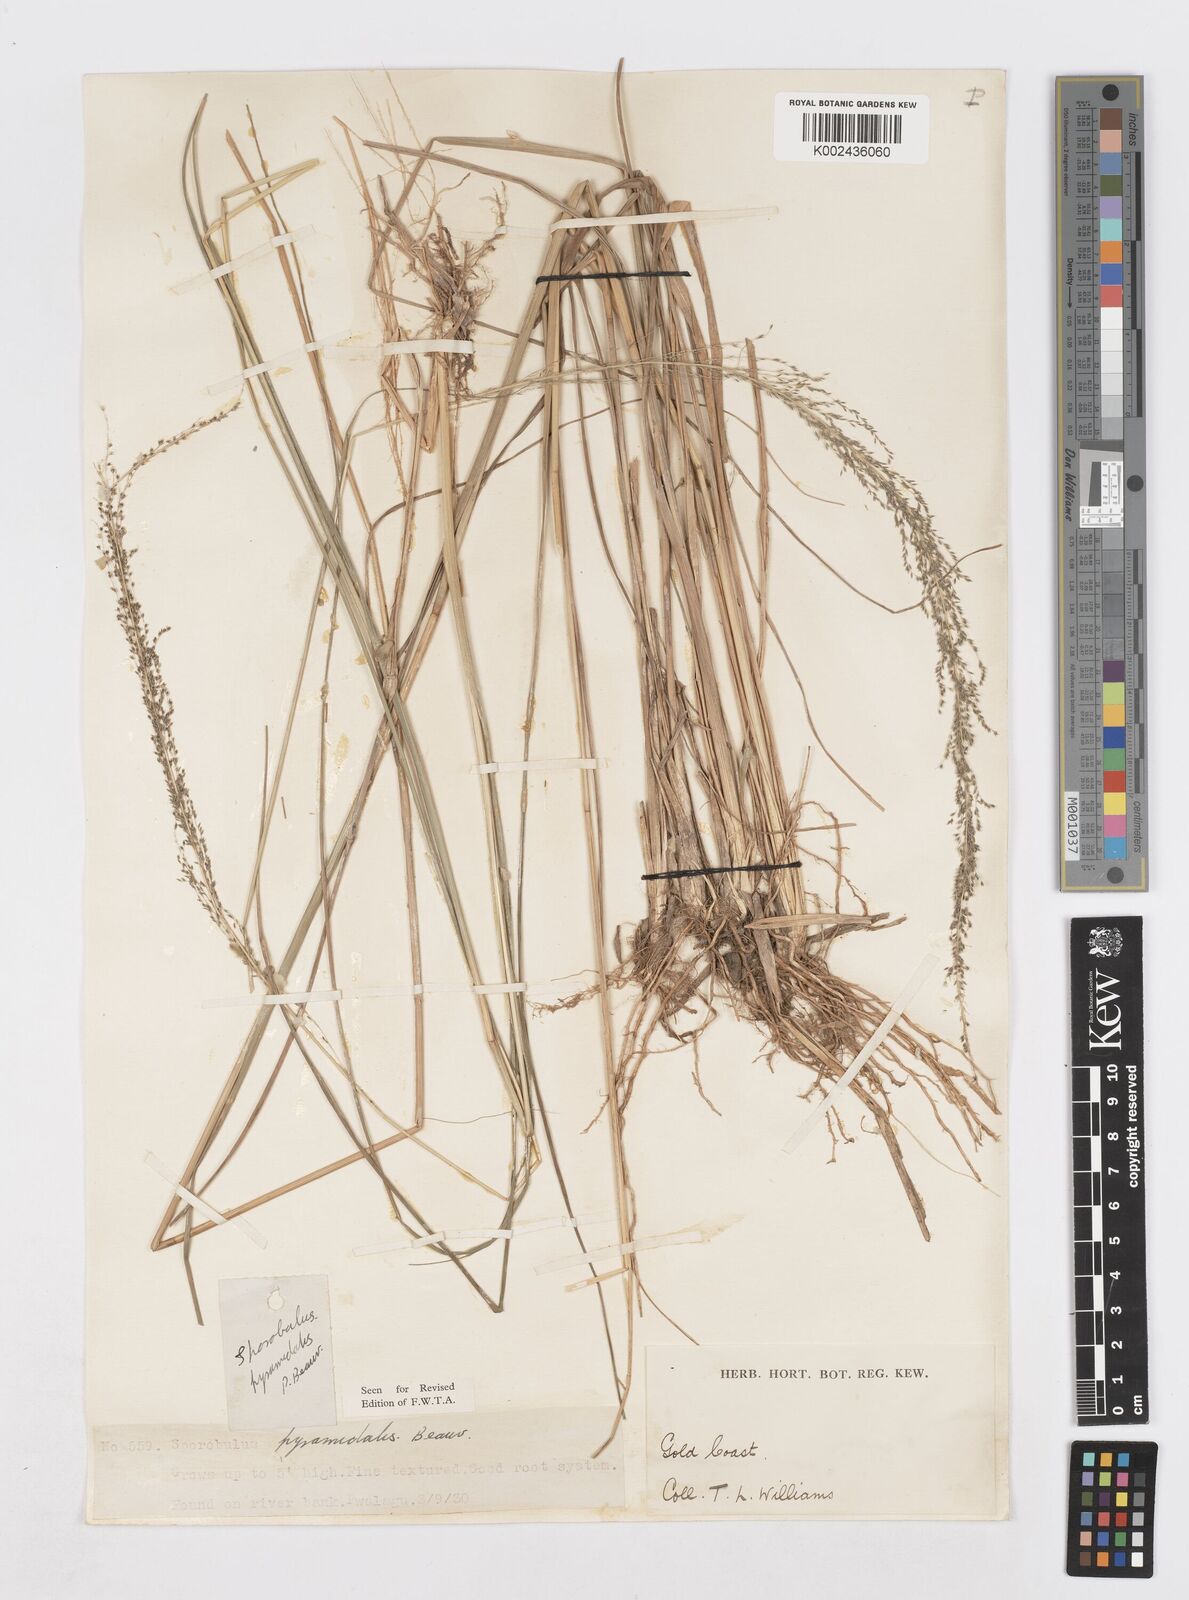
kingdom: Plantae
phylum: Tracheophyta
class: Liliopsida
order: Poales
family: Poaceae
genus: Sporobolus
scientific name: Sporobolus pyramidalis
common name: West indian dropseed
